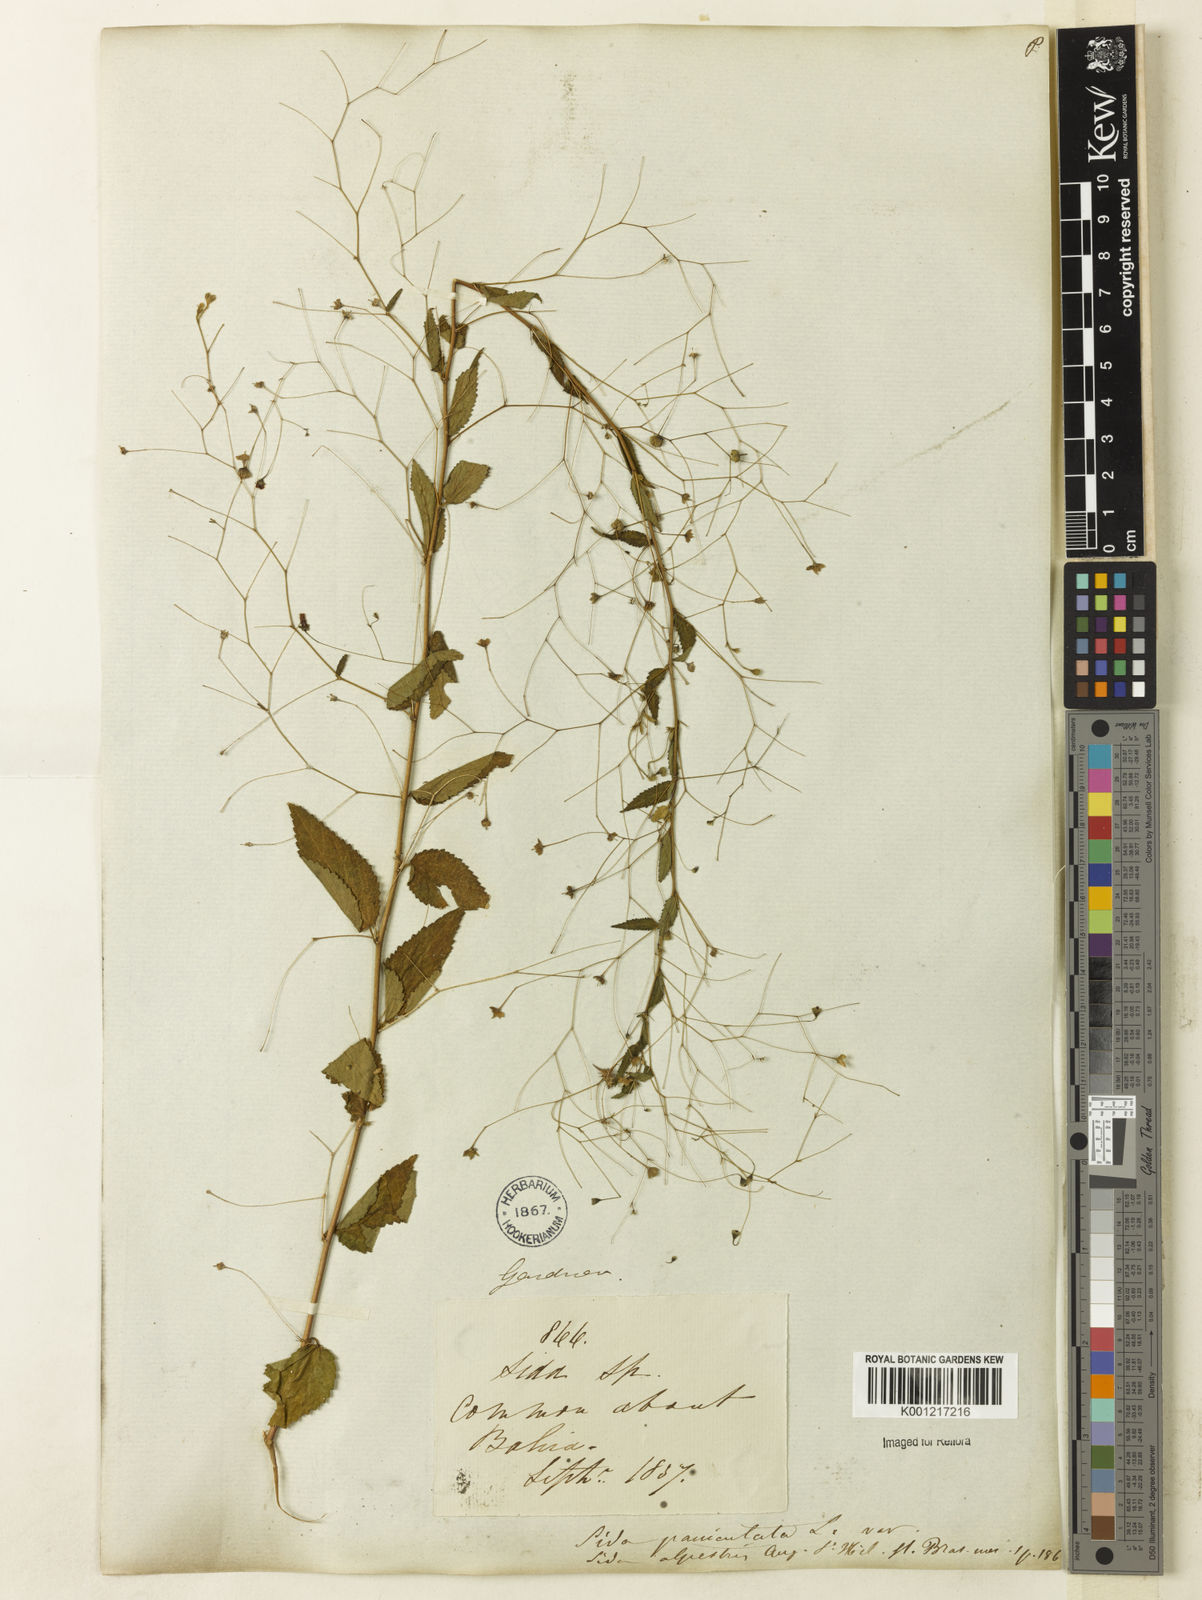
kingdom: Plantae
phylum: Tracheophyta
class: Magnoliopsida
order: Malvales
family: Malvaceae
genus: Sidastrum
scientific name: Sidastrum paniculatum
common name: Panicled sandmallow
